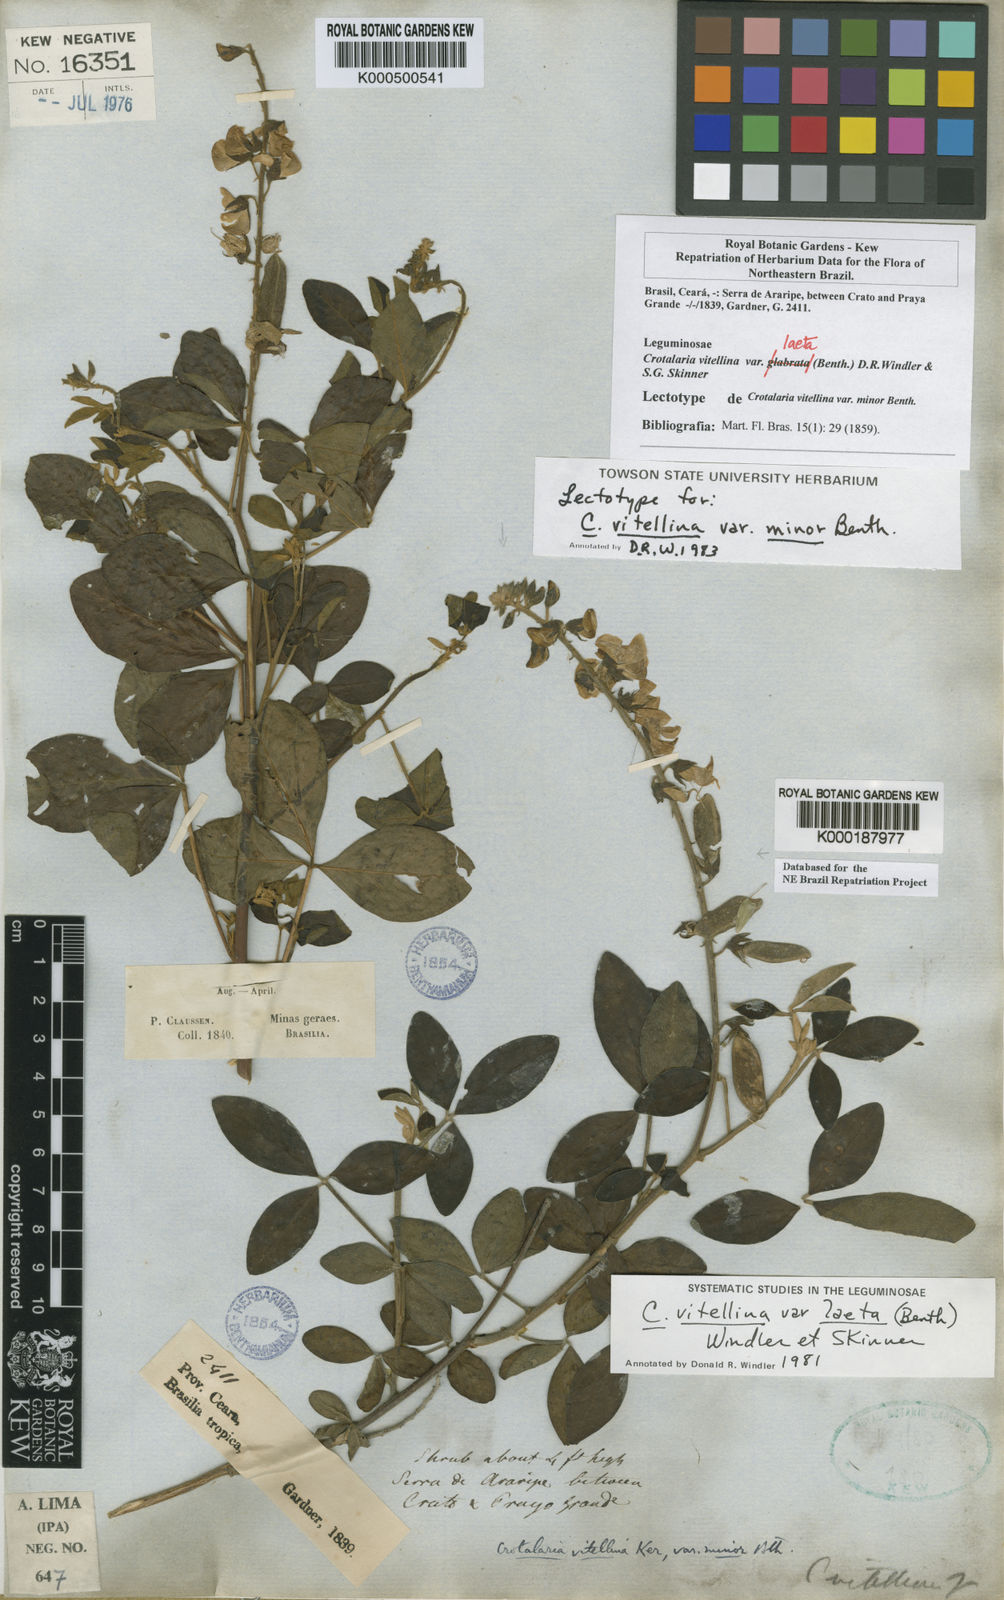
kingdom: Plantae
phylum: Tracheophyta
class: Magnoliopsida
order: Fabales
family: Fabaceae
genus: Crotalaria
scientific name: Crotalaria vitellina
